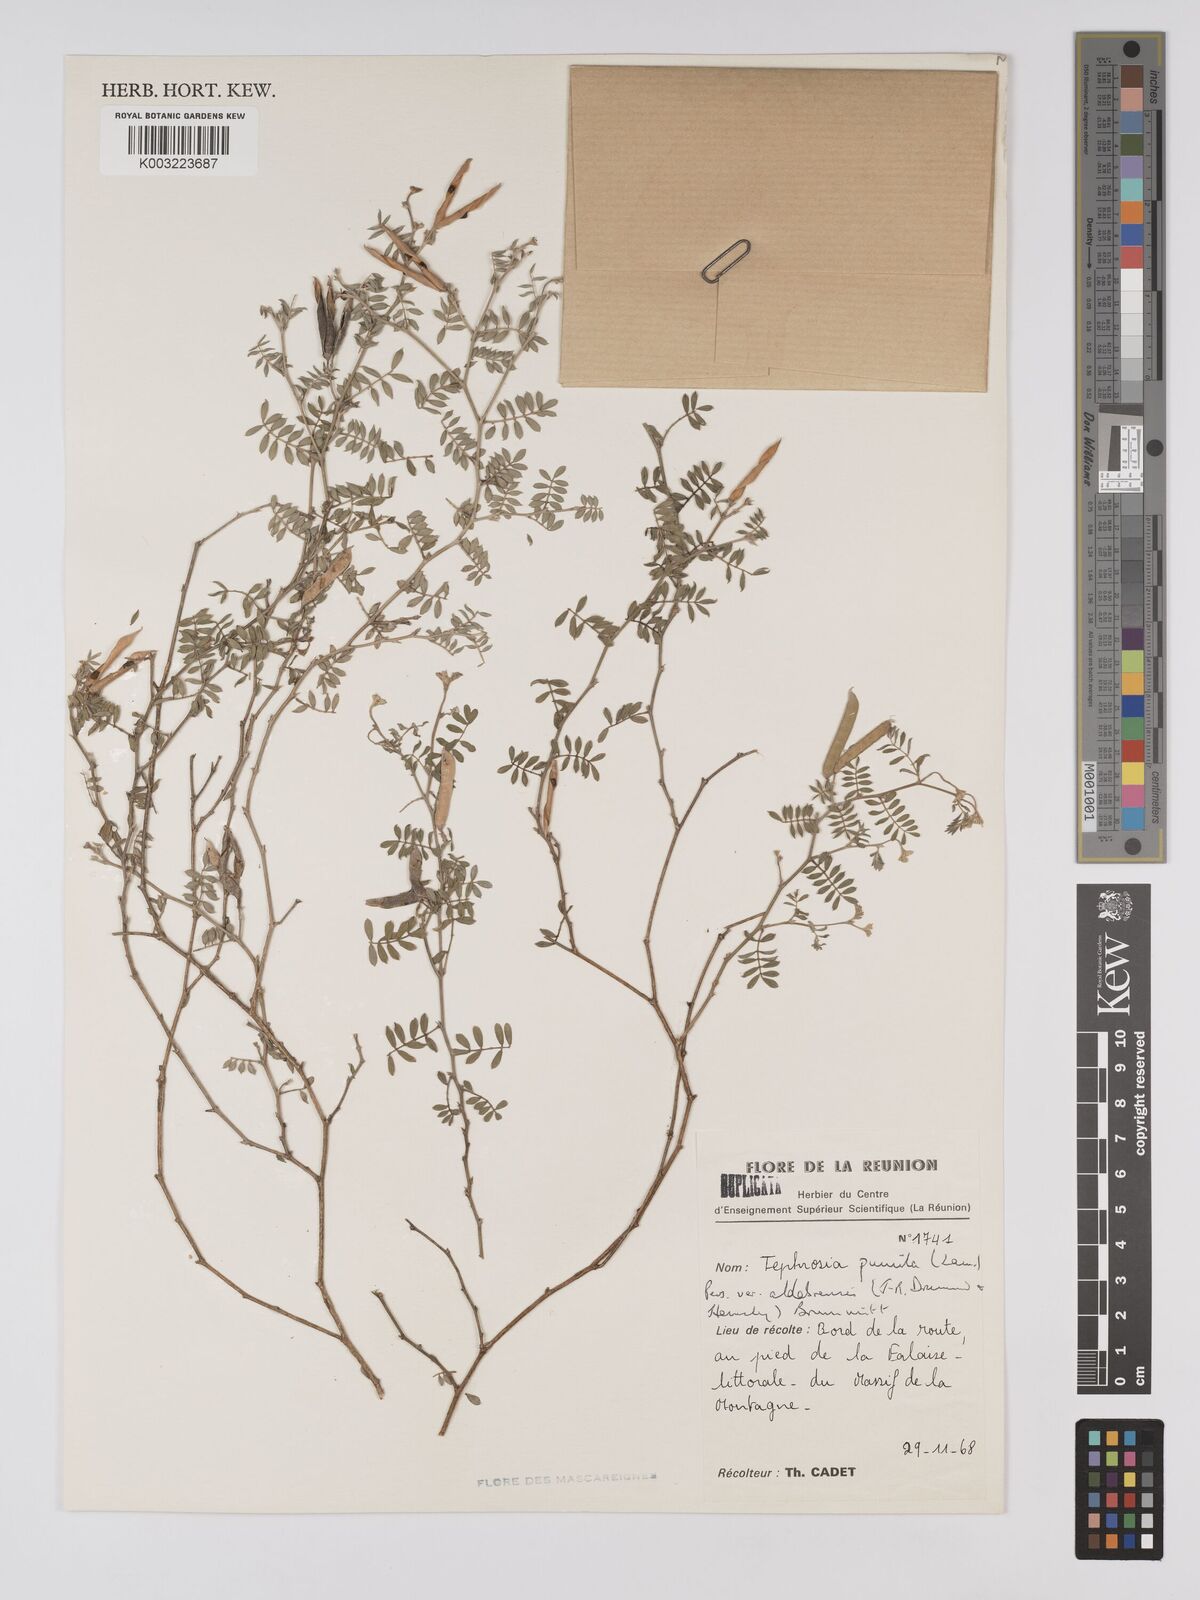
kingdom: Plantae
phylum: Tracheophyta
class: Magnoliopsida
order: Fabales
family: Fabaceae
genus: Tephrosia
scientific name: Tephrosia pumila
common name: Indigo sauvage
